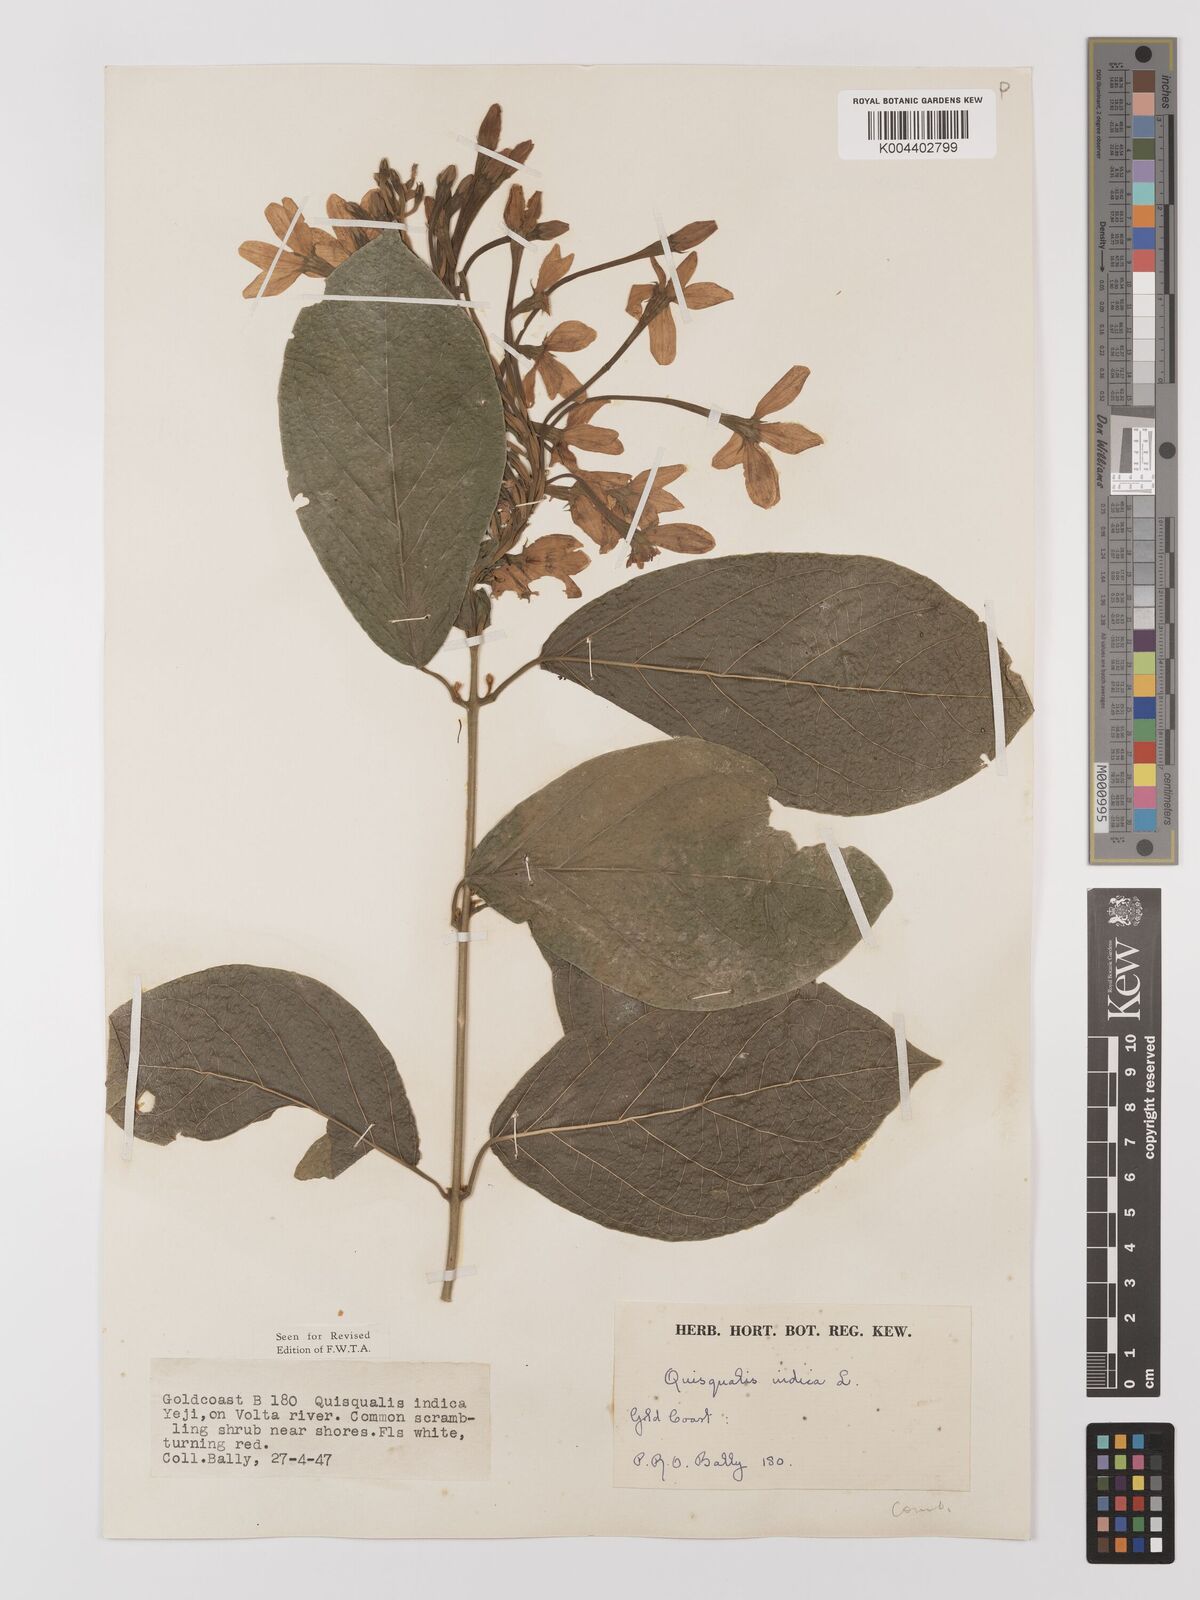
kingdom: Plantae
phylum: Tracheophyta
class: Magnoliopsida
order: Myrtales
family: Combretaceae
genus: Combretum
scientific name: Combretum
